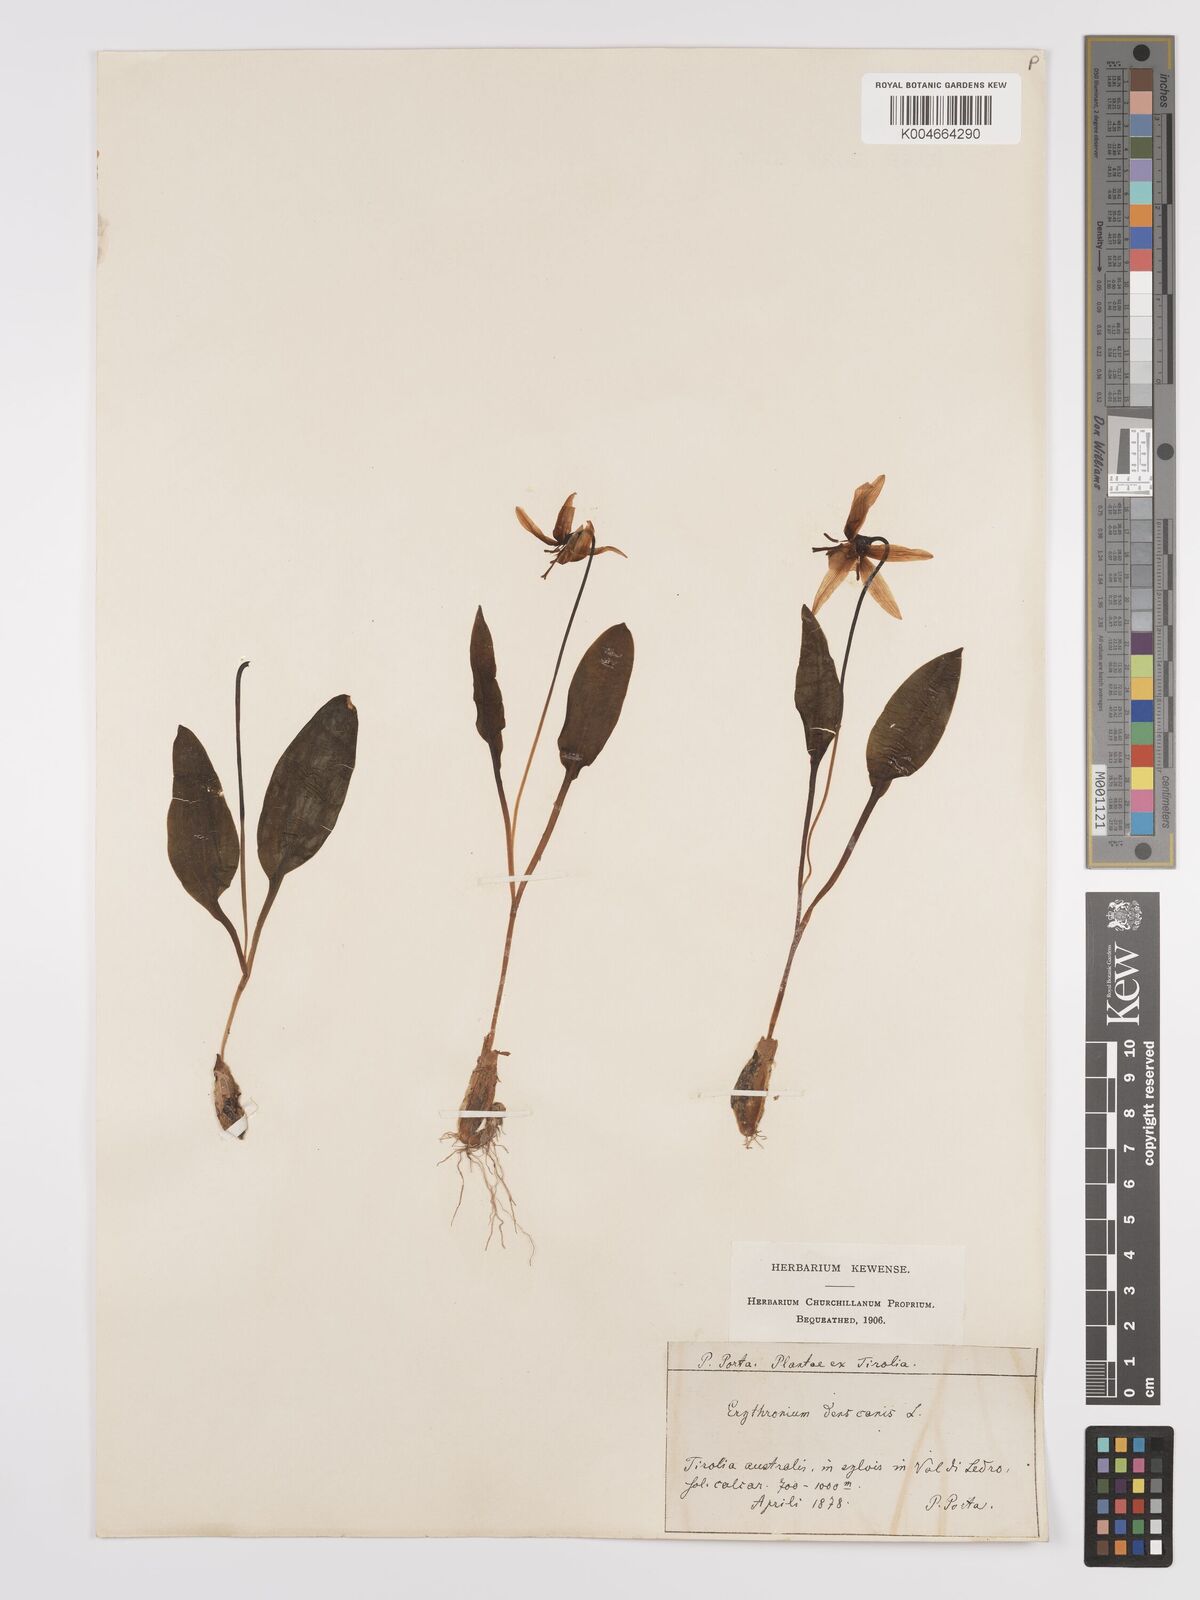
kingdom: Plantae
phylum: Tracheophyta
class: Liliopsida
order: Liliales
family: Liliaceae
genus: Erythronium
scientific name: Erythronium dens-canis
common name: Dog's-tooth-violet
